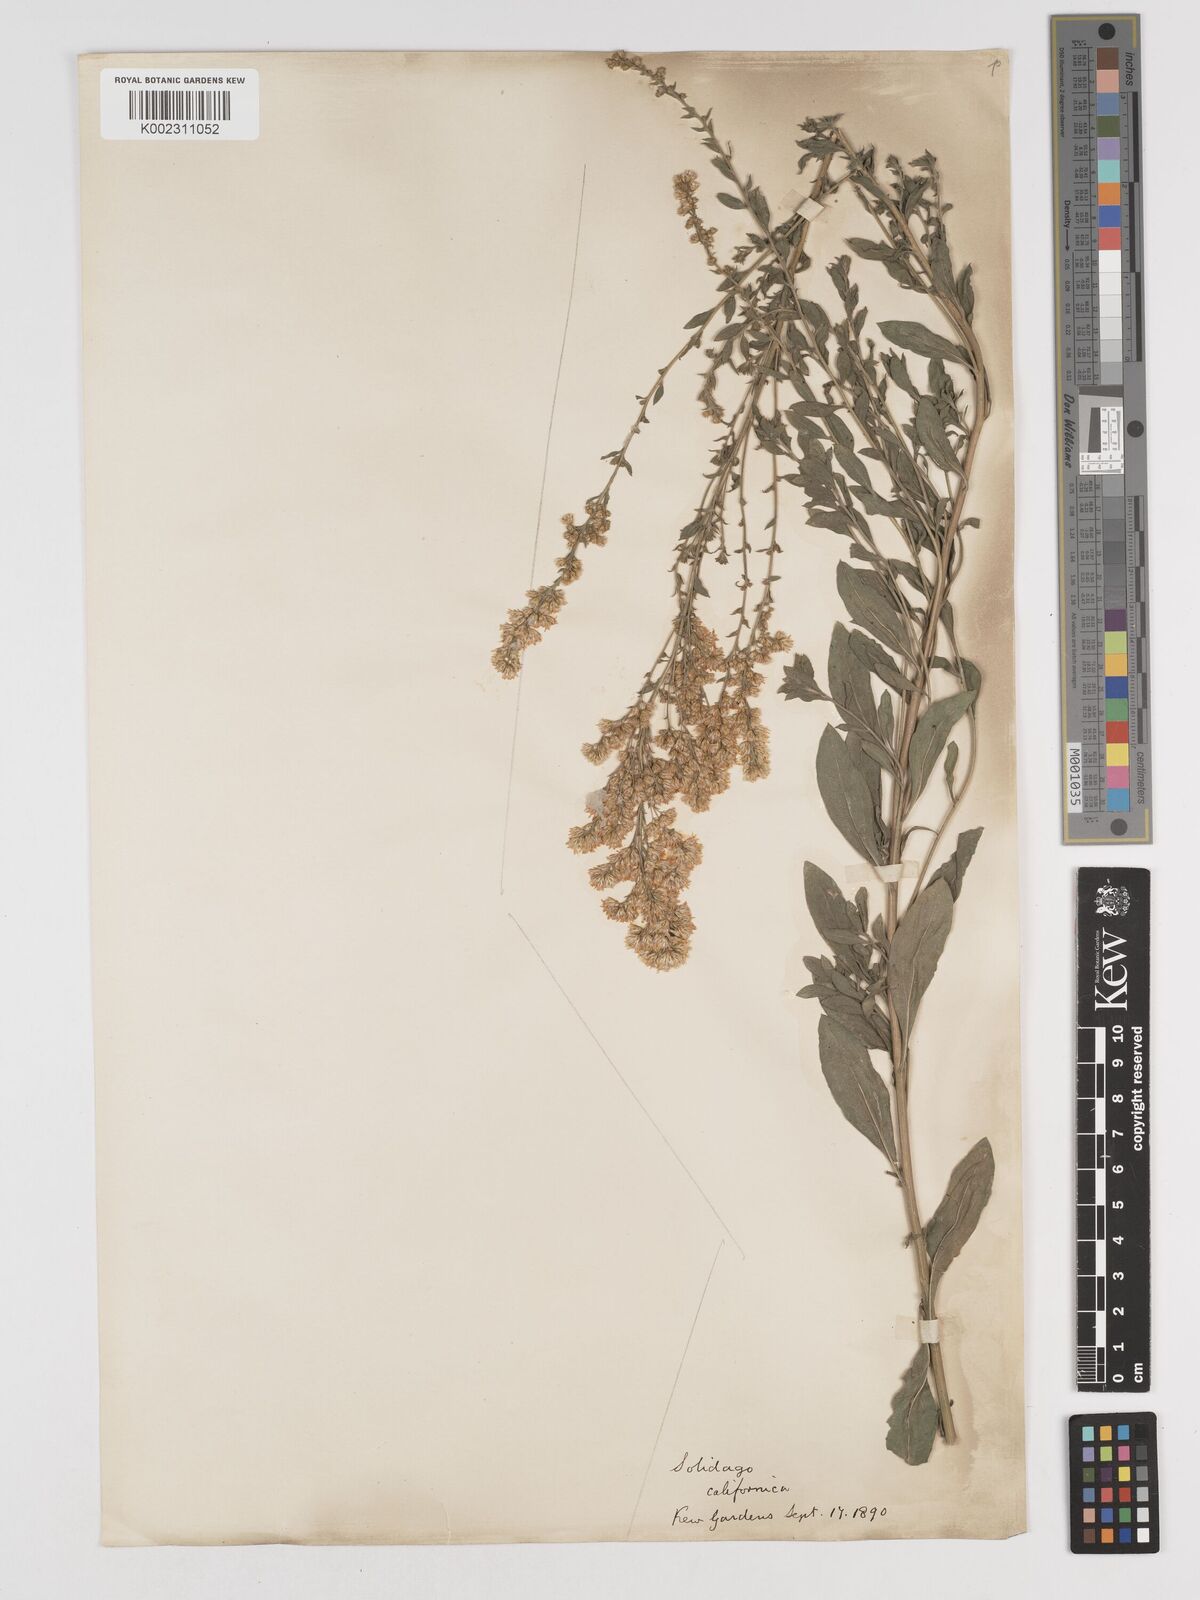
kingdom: Plantae
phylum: Tracheophyta
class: Magnoliopsida
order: Asterales
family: Asteraceae
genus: Solidago
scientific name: Solidago
